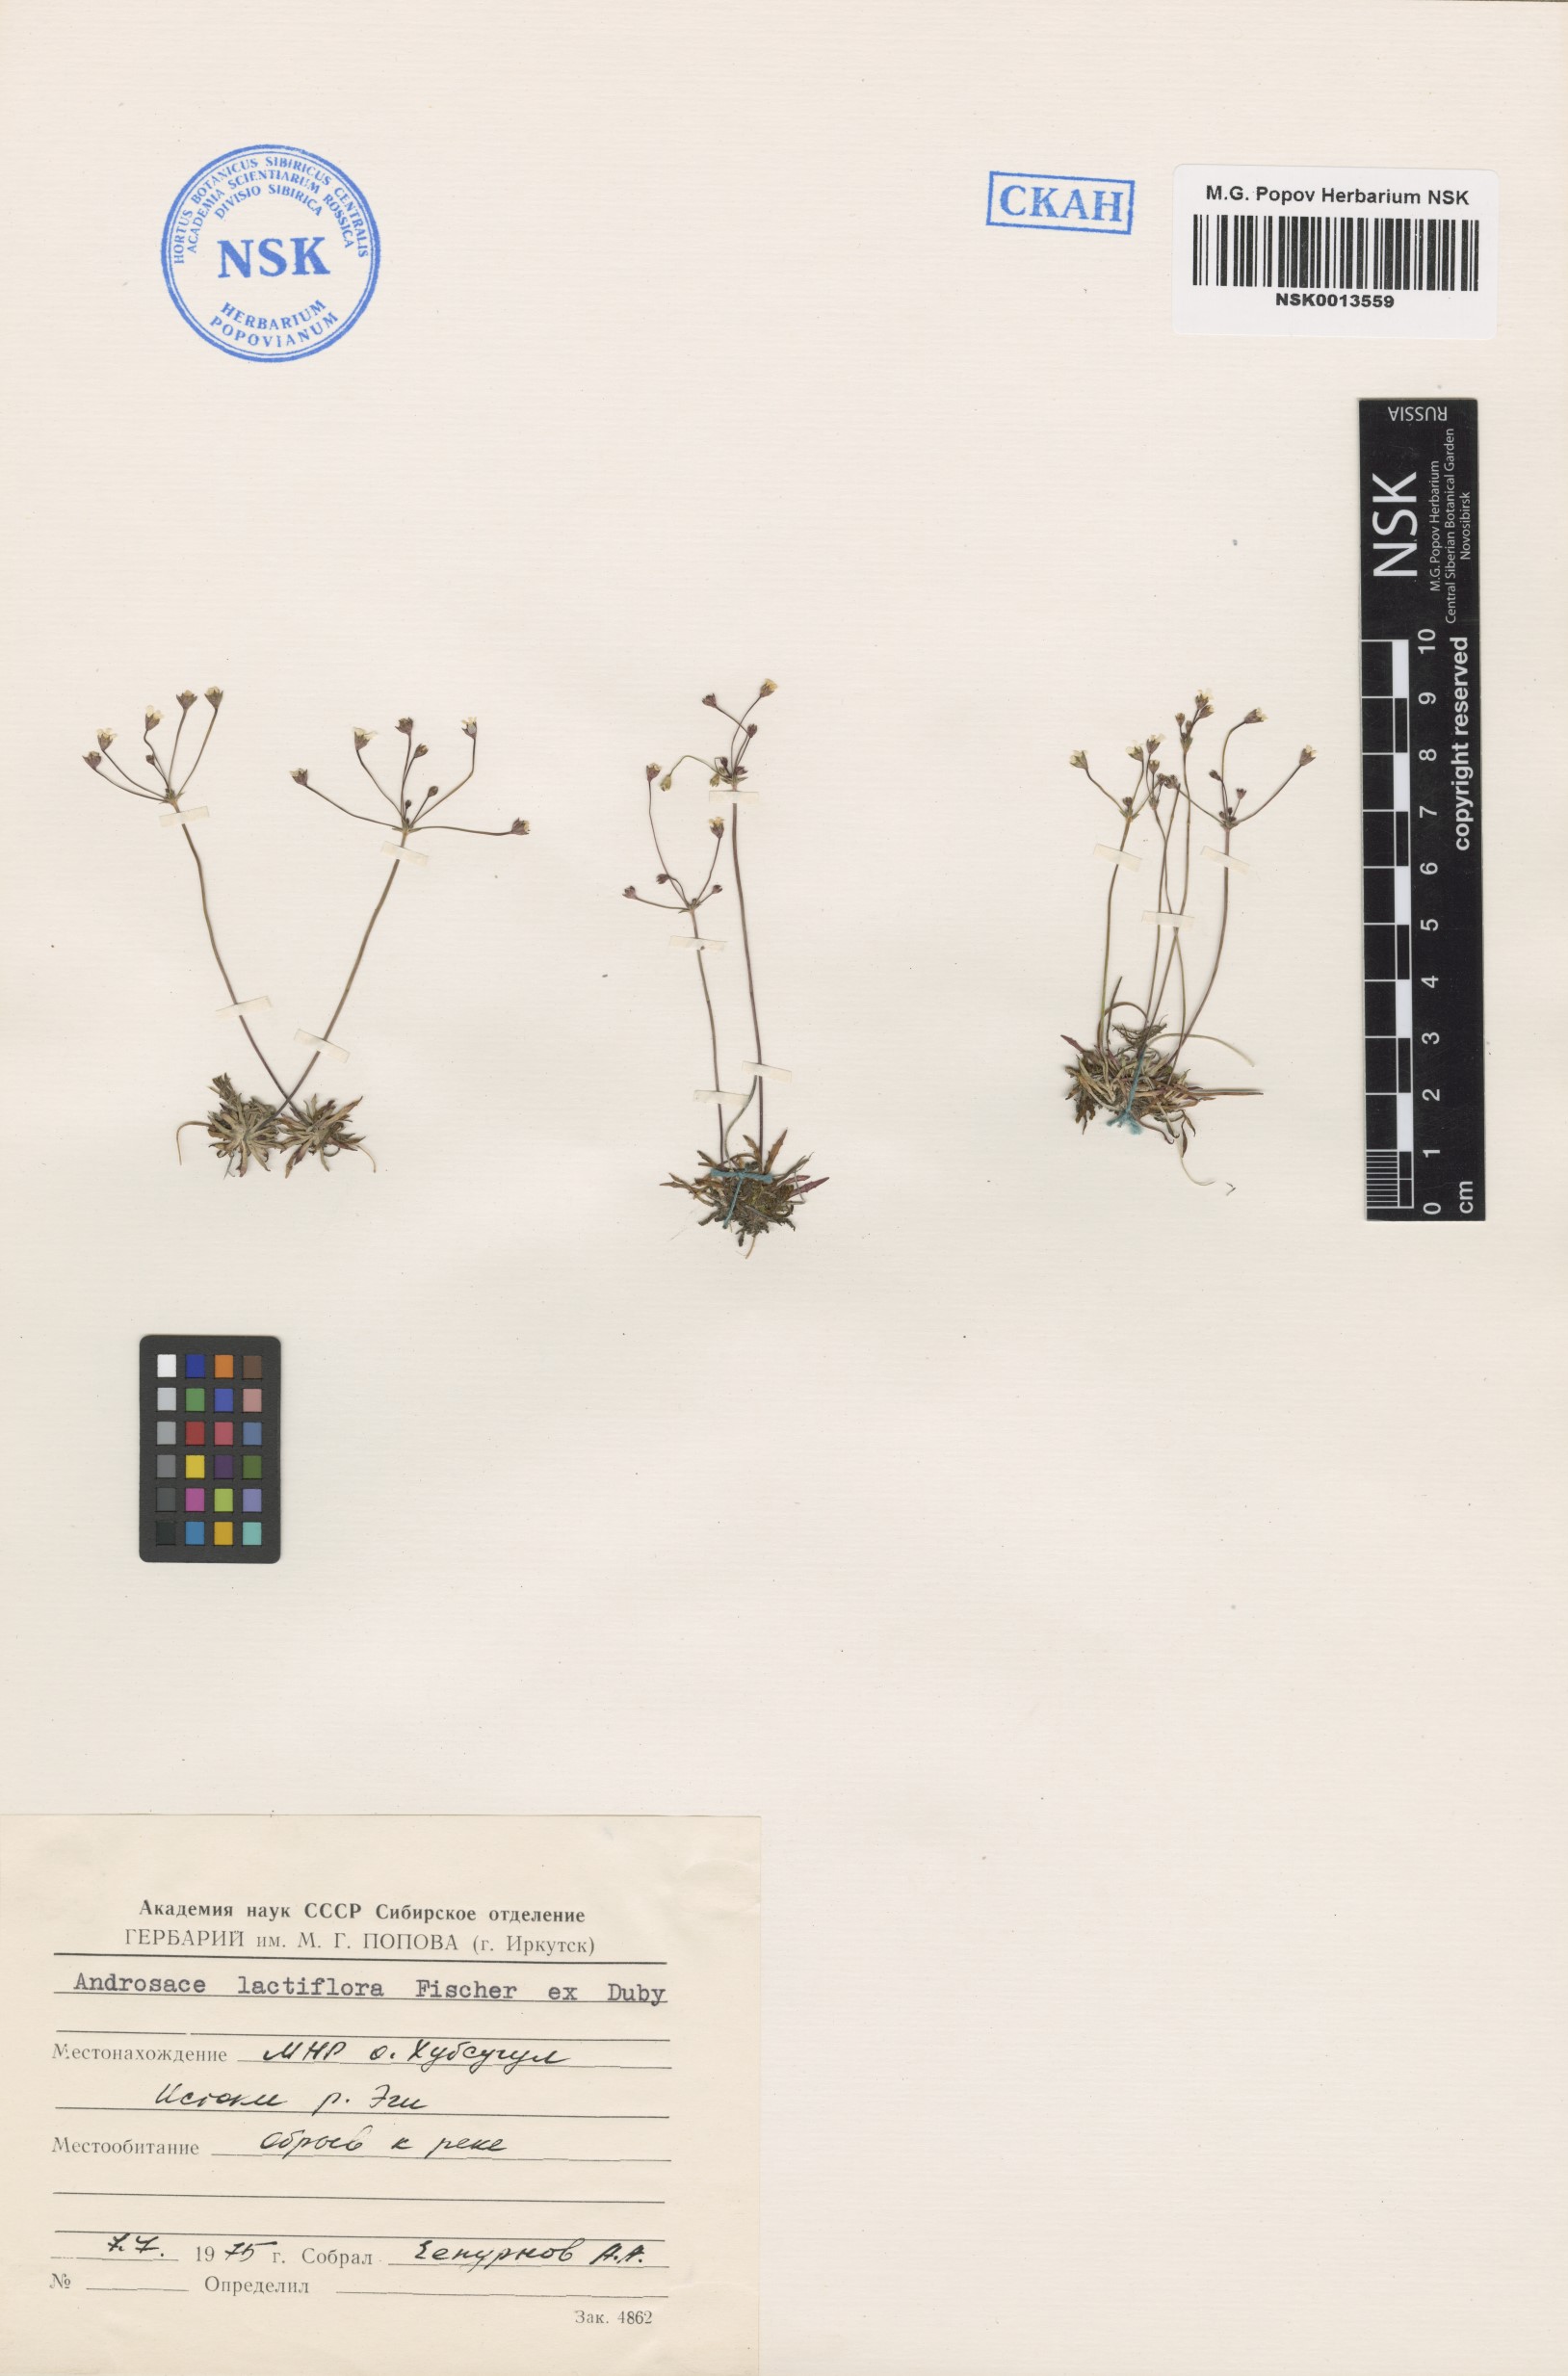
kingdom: Plantae
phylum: Tracheophyta
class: Magnoliopsida
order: Ericales
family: Primulaceae
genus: Androsace
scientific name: Androsace lactiflora
